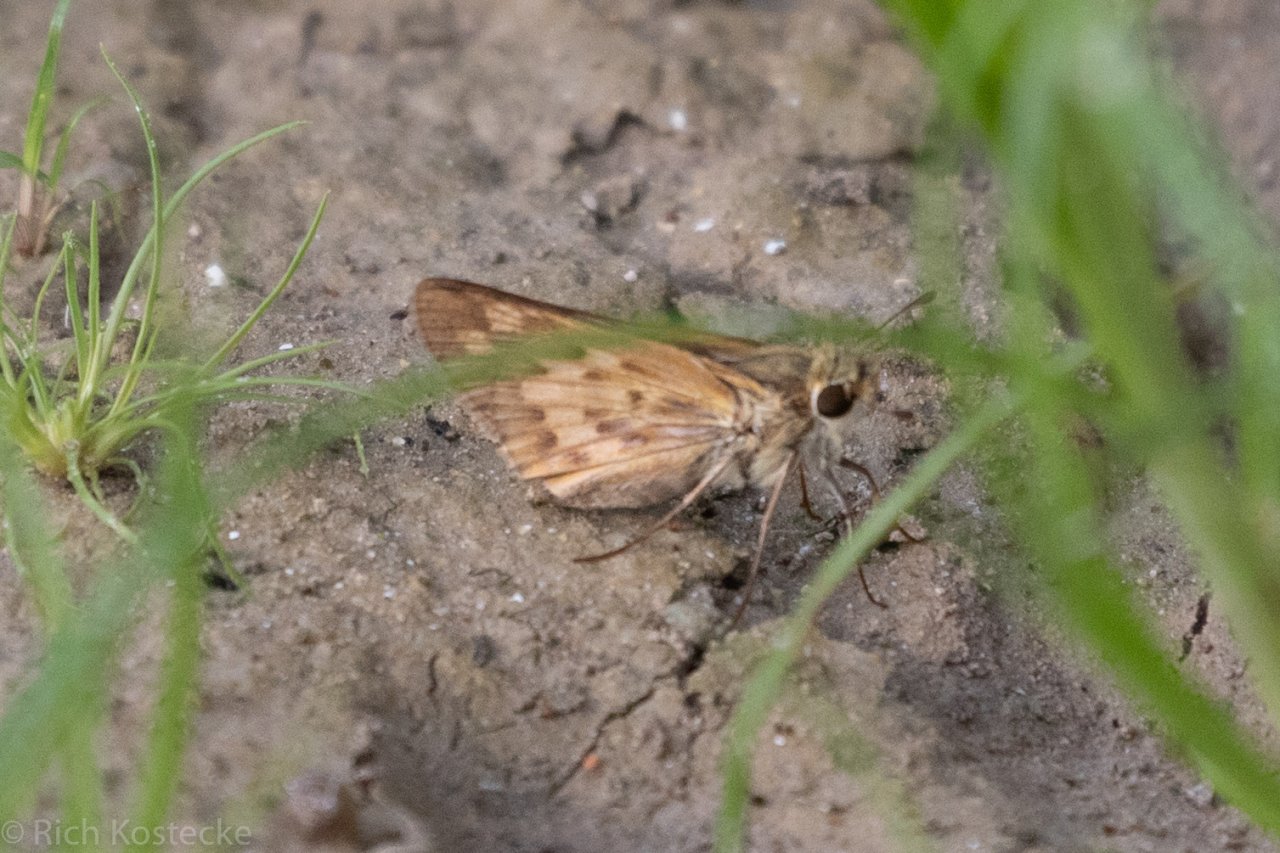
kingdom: Animalia
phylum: Arthropoda
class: Insecta
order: Lepidoptera
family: Hesperiidae
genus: Hylephila
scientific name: Hylephila phyleus
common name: Fiery Skipper
